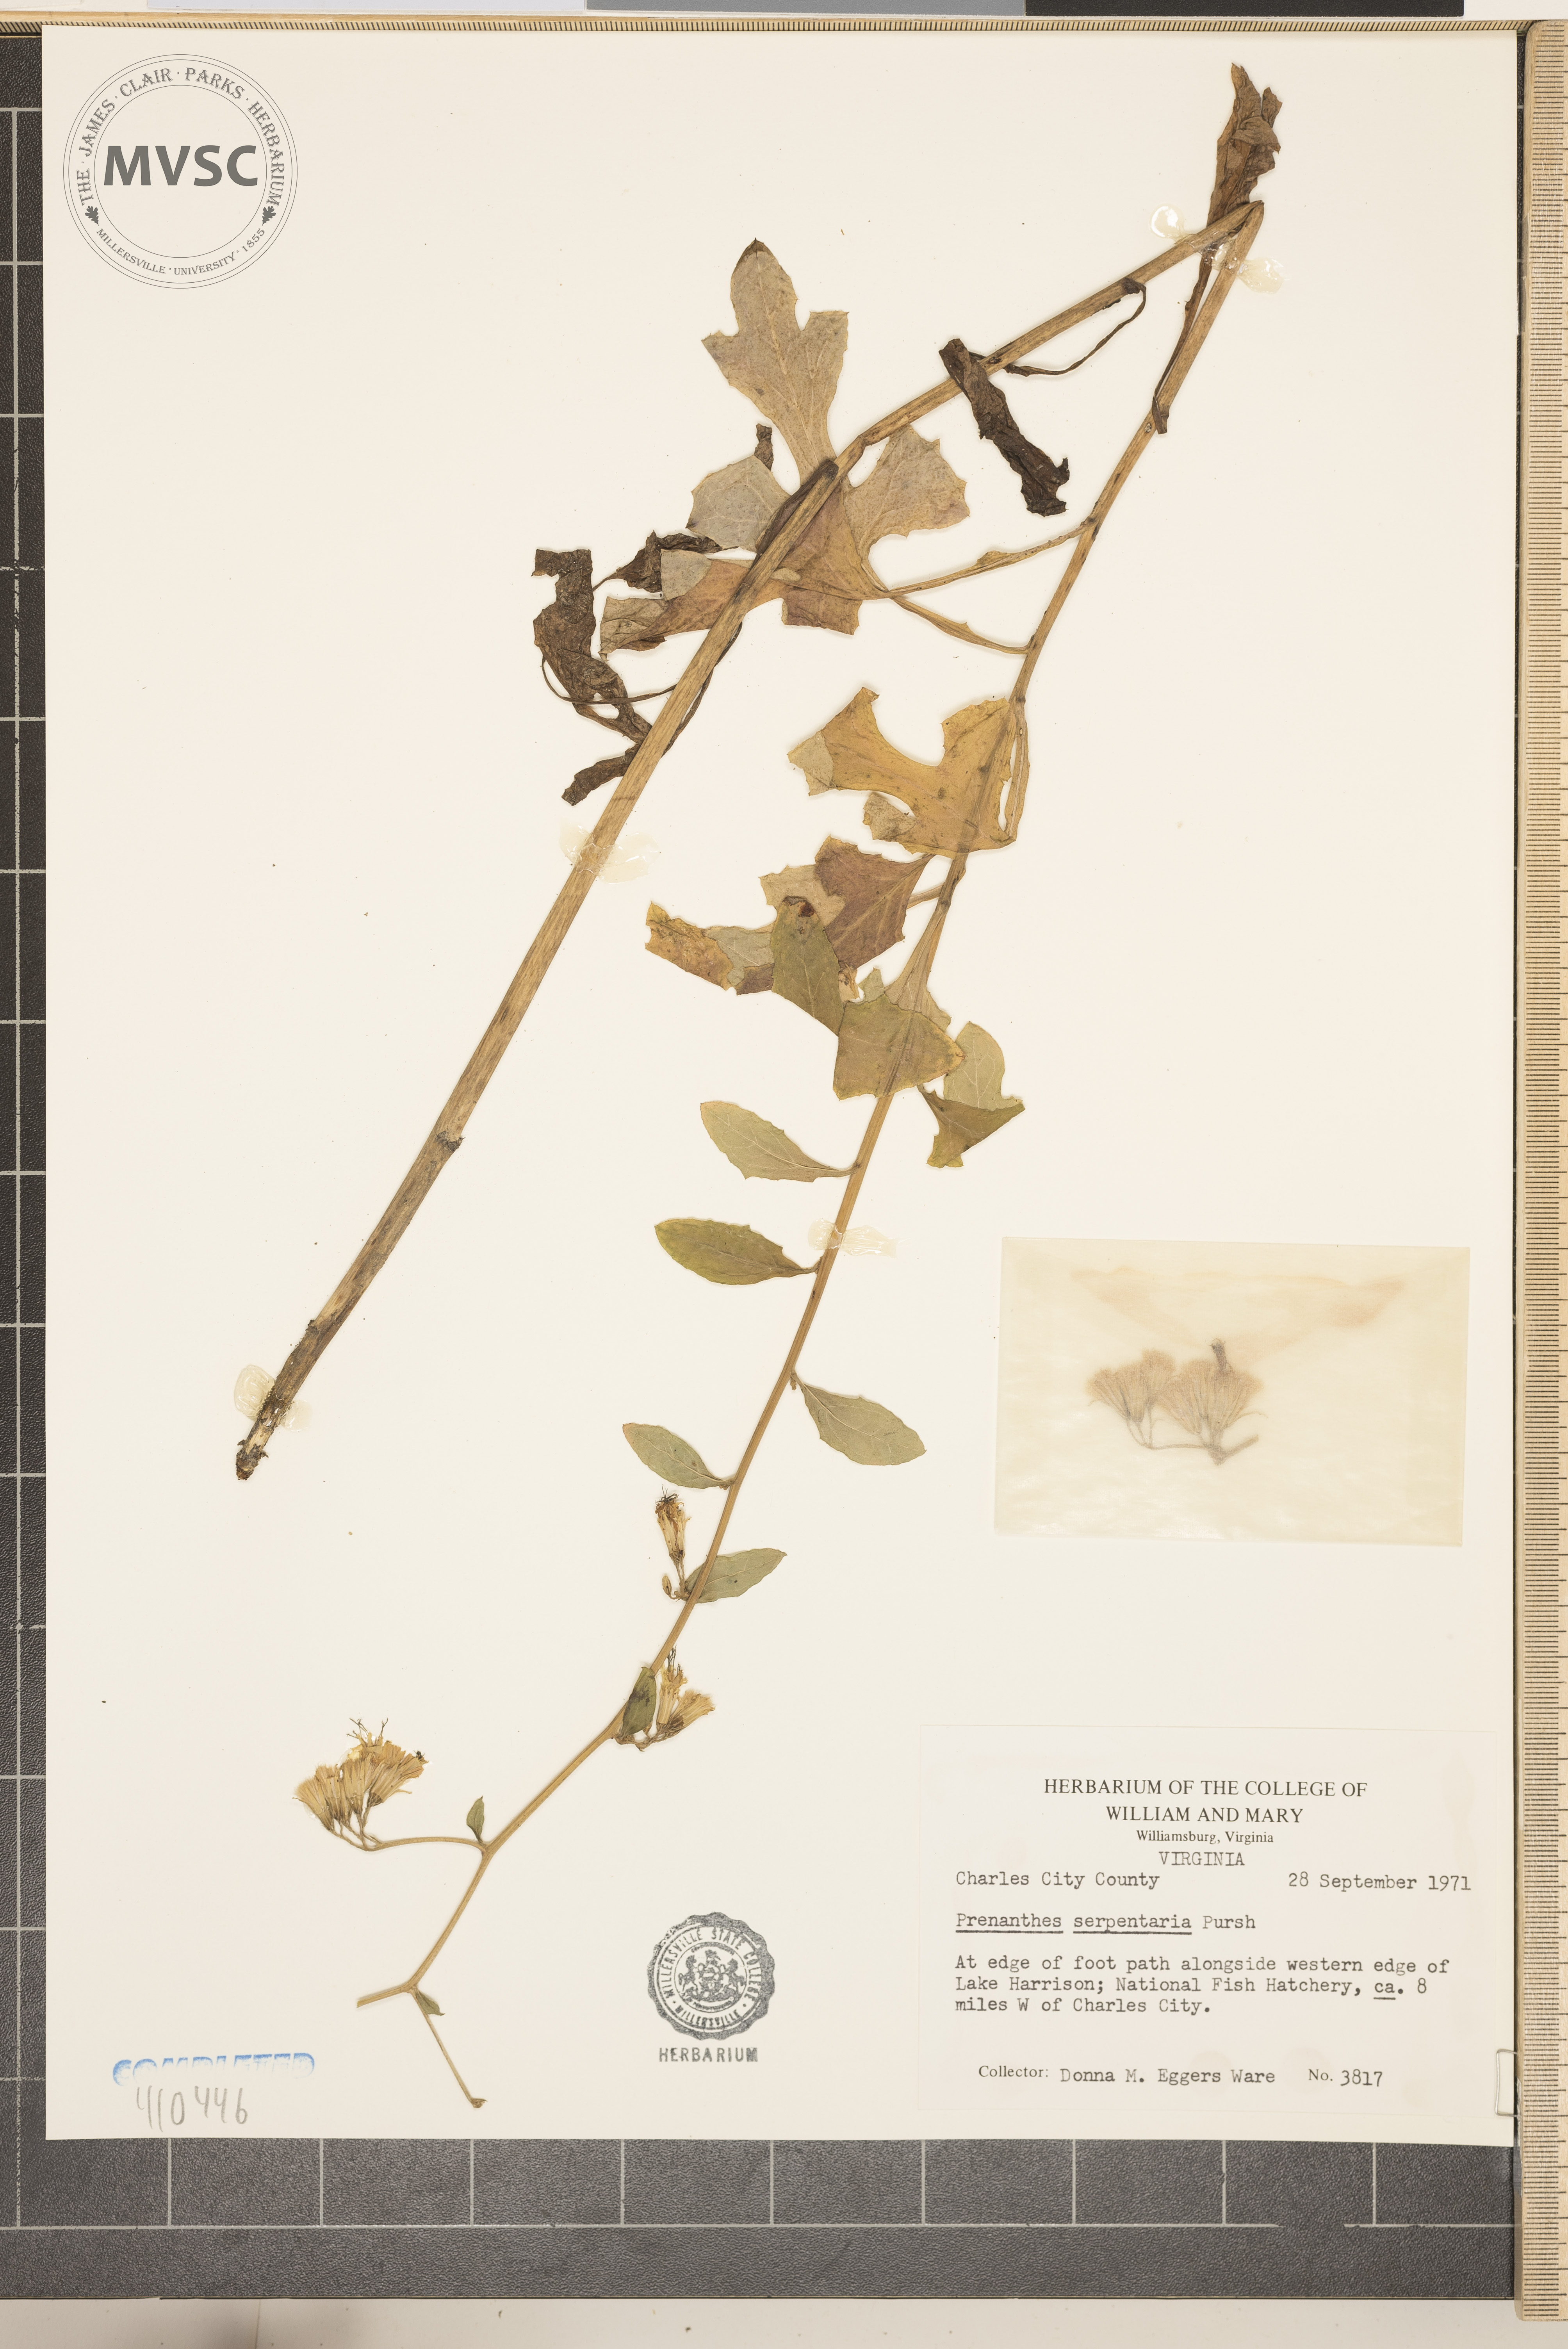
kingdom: Plantae
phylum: Tracheophyta
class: Magnoliopsida
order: Asterales
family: Asteraceae
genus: Nabalus
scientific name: Nabalus serpentarius
